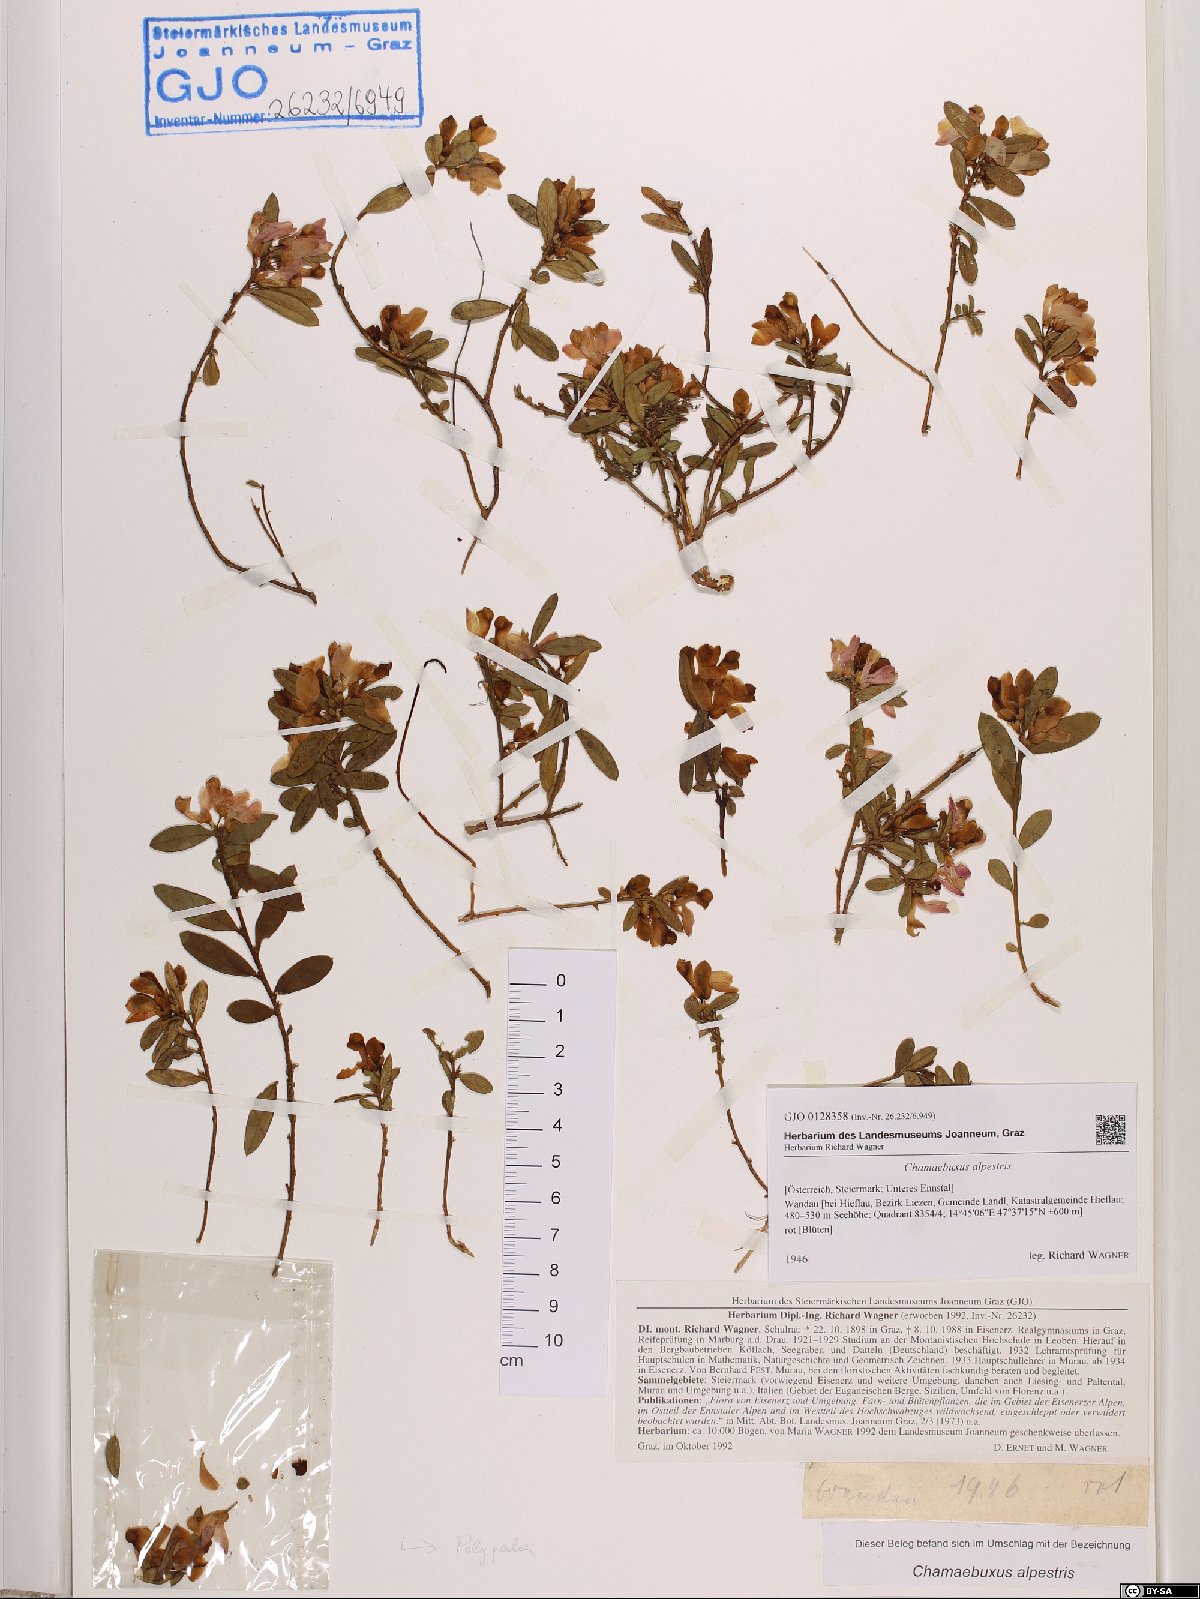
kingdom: Plantae
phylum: Tracheophyta
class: Magnoliopsida
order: Fabales
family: Polygalaceae
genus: Polygaloides
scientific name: Polygaloides chamaebuxus
